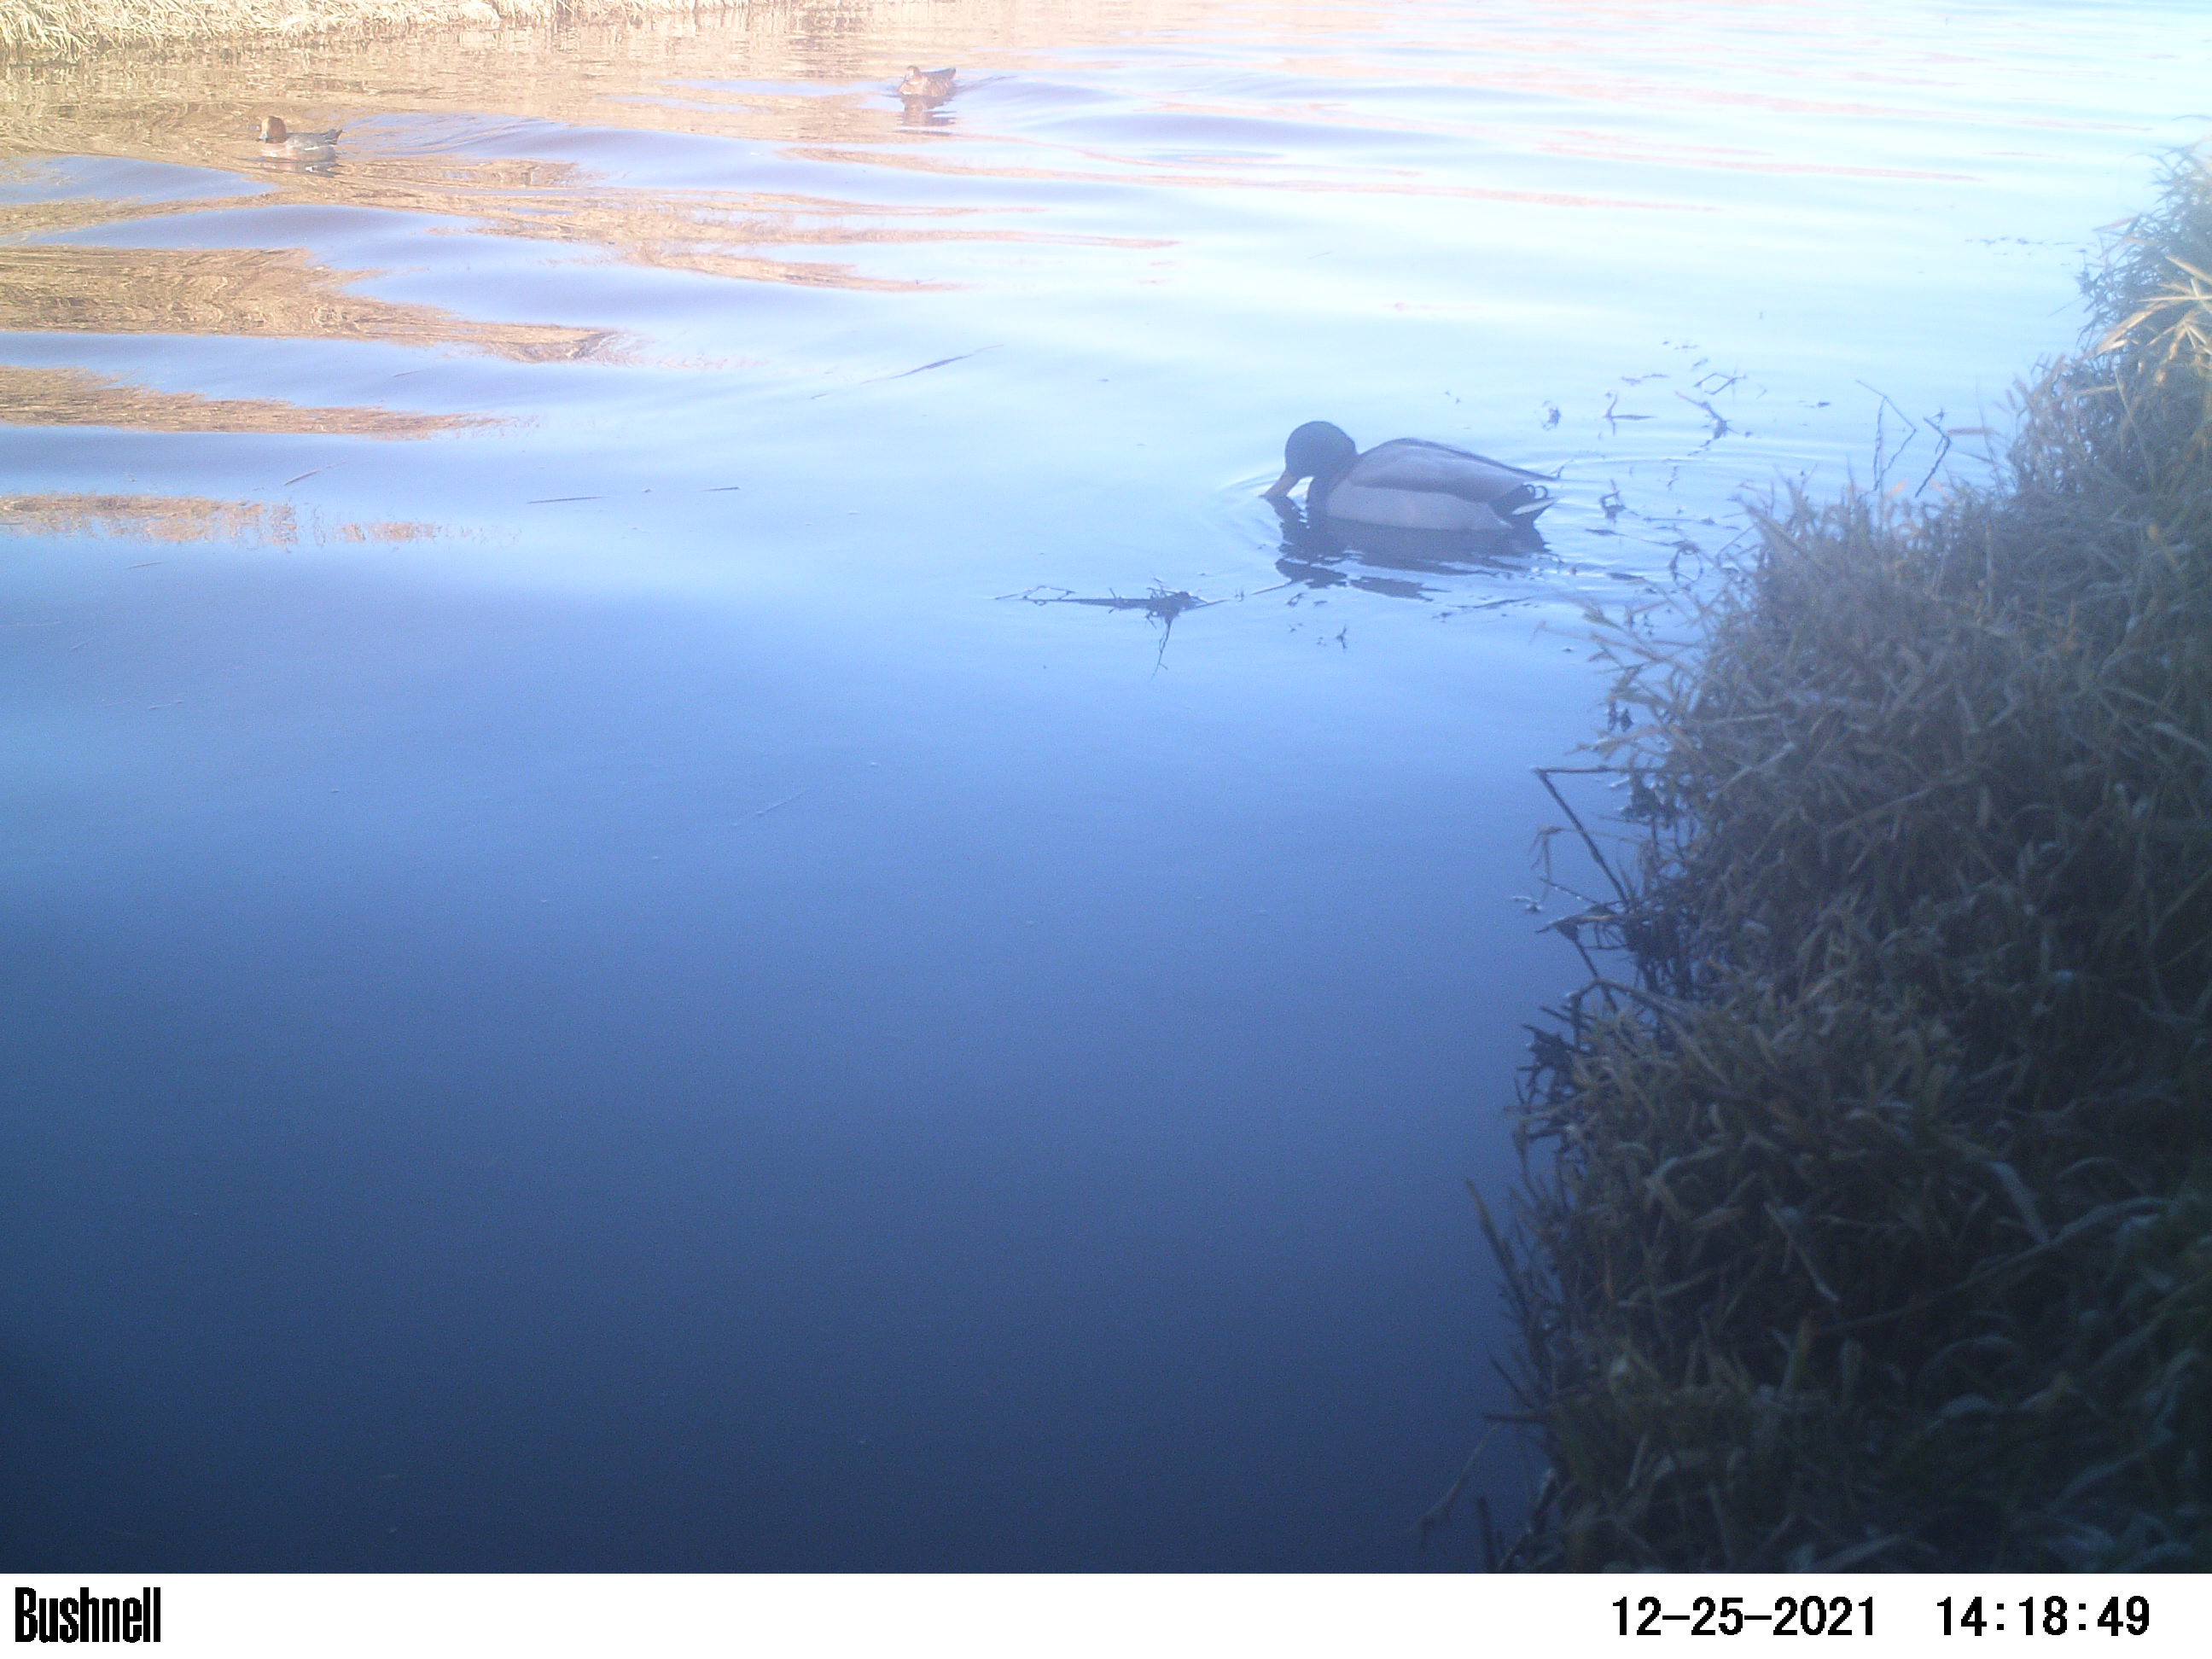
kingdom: Animalia
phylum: Chordata
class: Aves
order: Anseriformes
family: Anatidae
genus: Anas
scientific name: Anas
